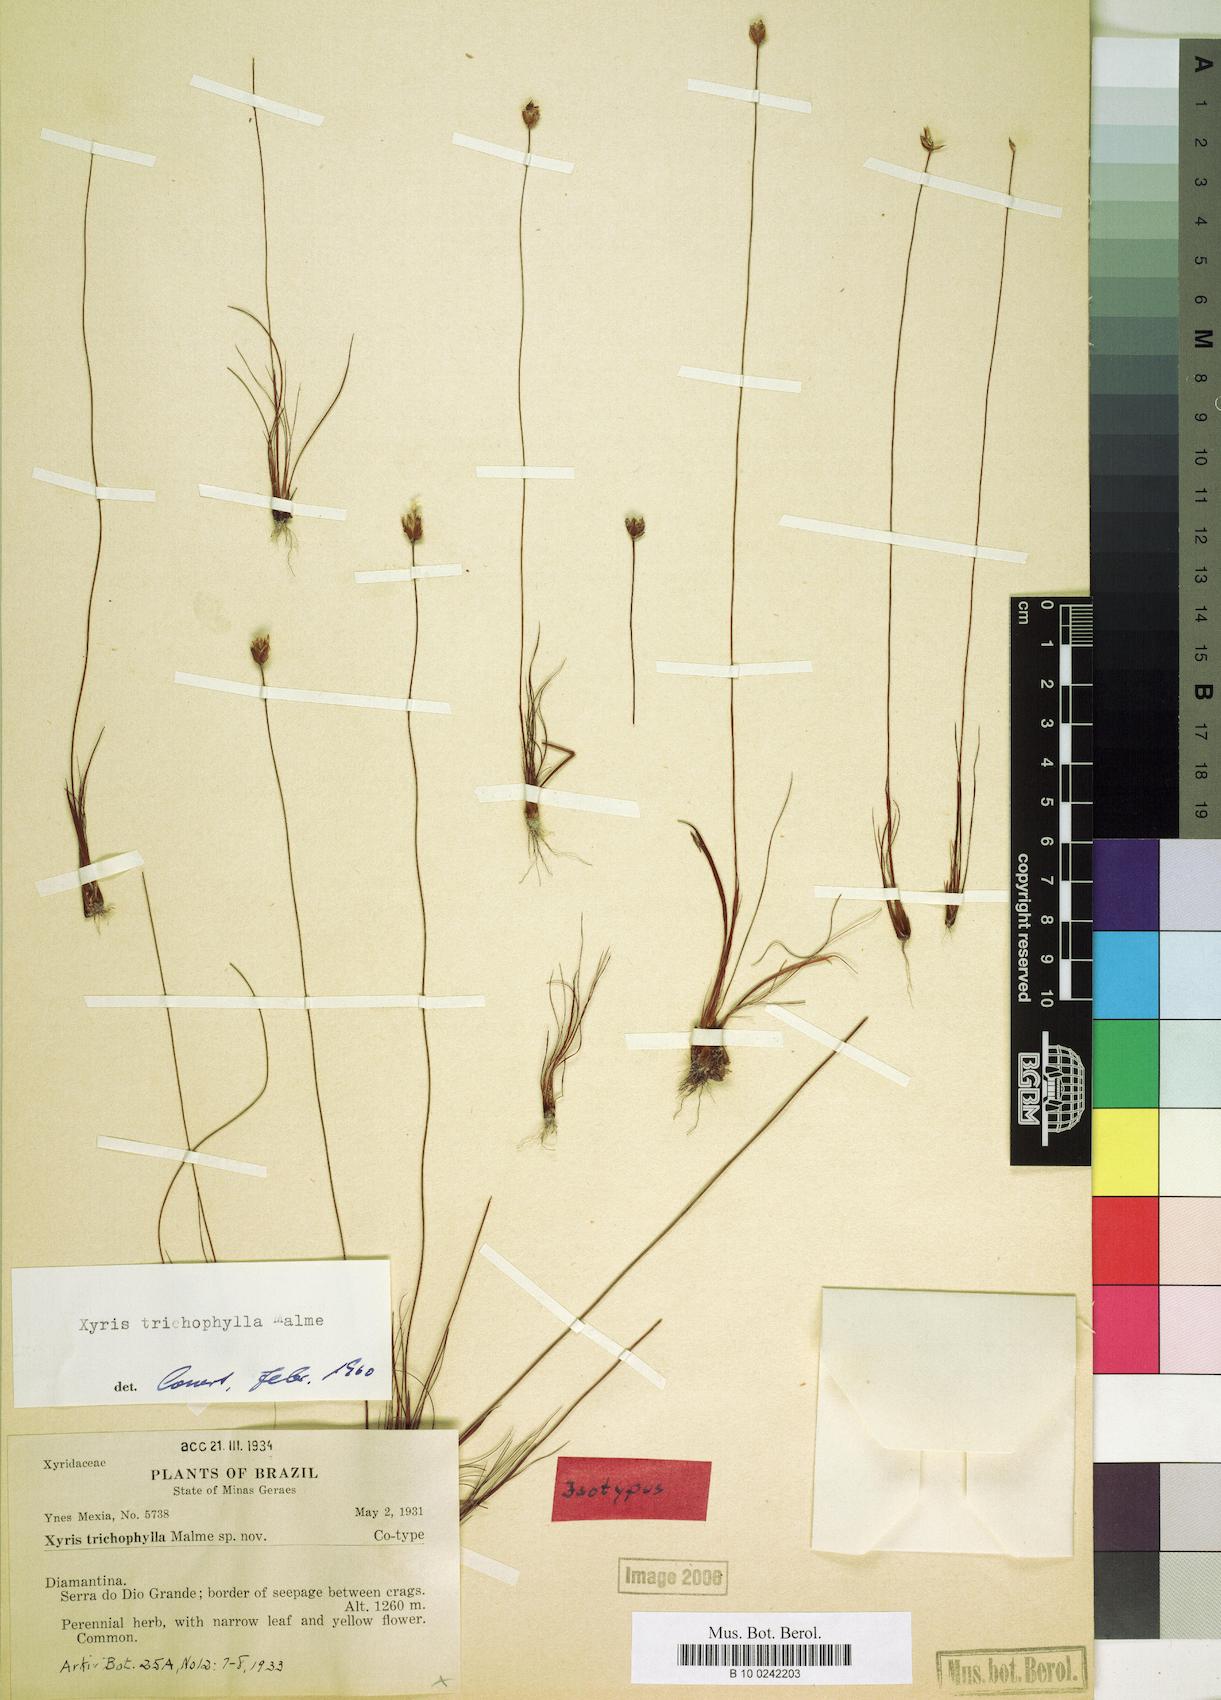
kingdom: Plantae
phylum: Tracheophyta
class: Liliopsida
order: Poales
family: Xyridaceae
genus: Xyris
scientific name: Xyris trichophylla
